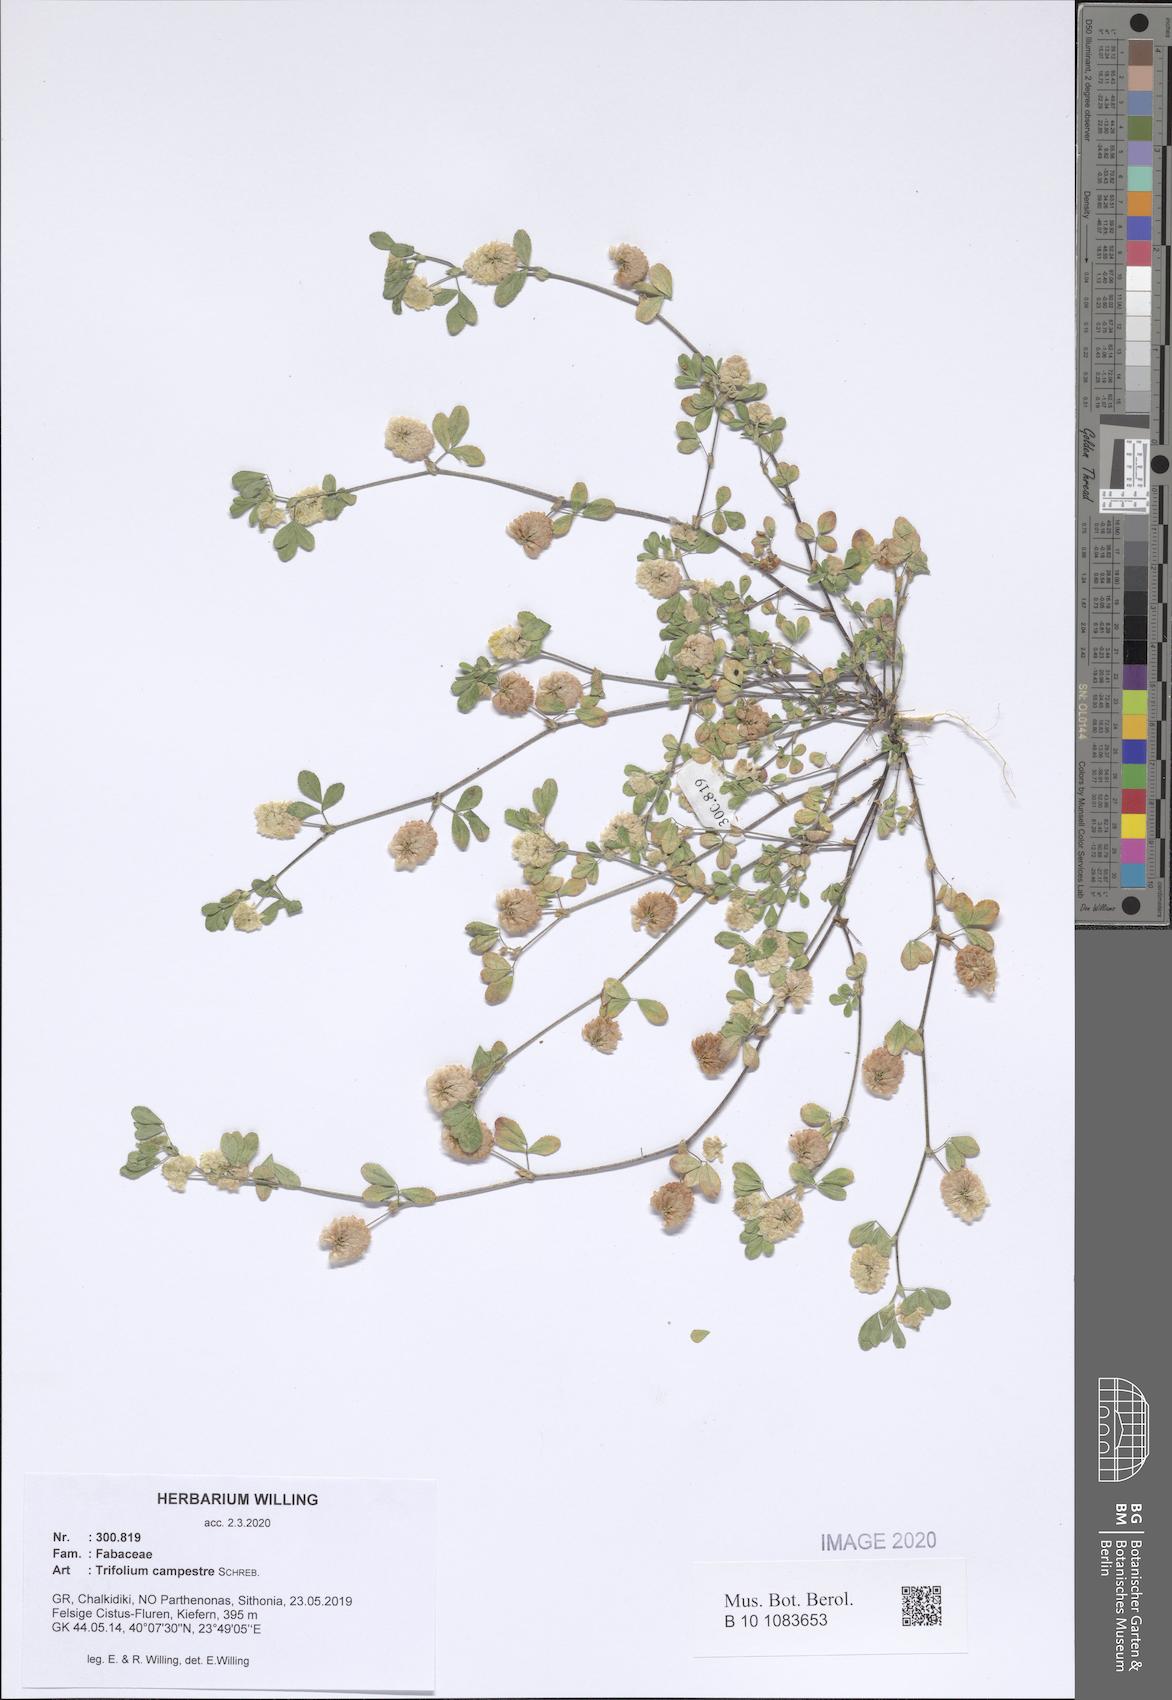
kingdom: Plantae
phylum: Tracheophyta
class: Magnoliopsida
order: Fabales
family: Fabaceae
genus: Trifolium
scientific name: Trifolium campestre
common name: Field clover
